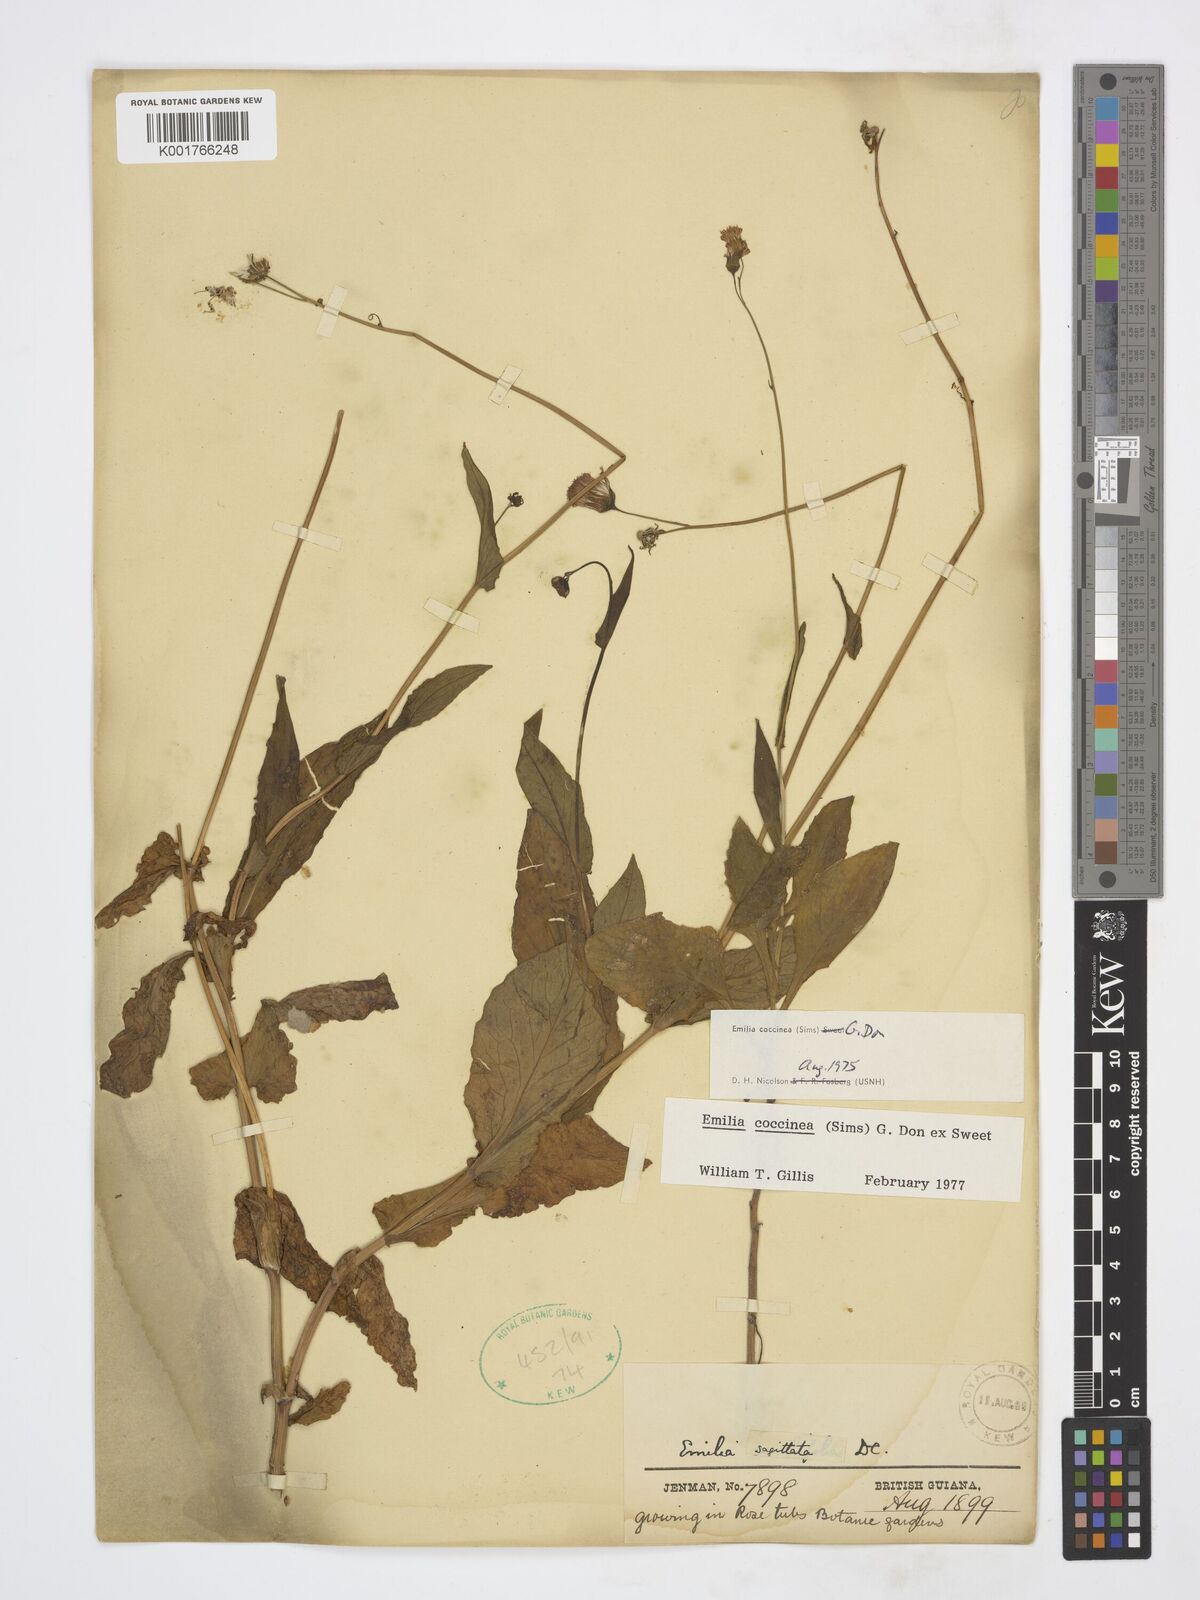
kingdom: Plantae
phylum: Tracheophyta
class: Magnoliopsida
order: Asterales
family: Asteraceae
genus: Emilia
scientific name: Emilia coccinea
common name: Scarlet tasselflower
